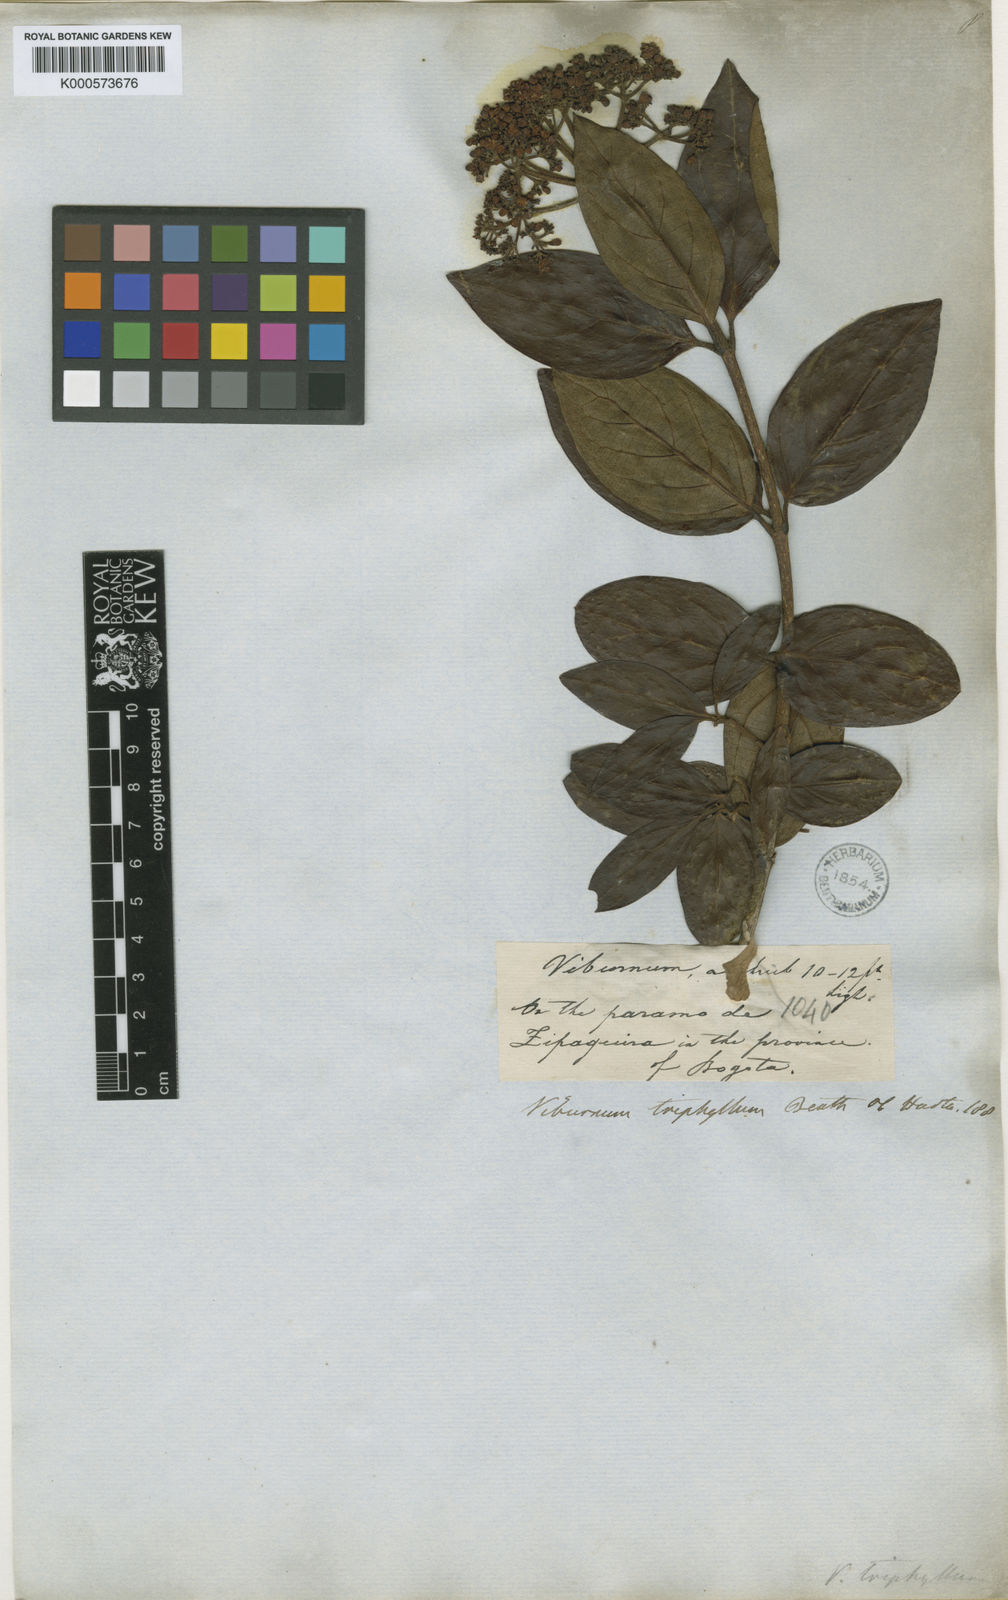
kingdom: Plantae
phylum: Tracheophyta
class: Magnoliopsida
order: Dipsacales
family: Viburnaceae
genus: Viburnum
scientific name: Viburnum triphyllum
